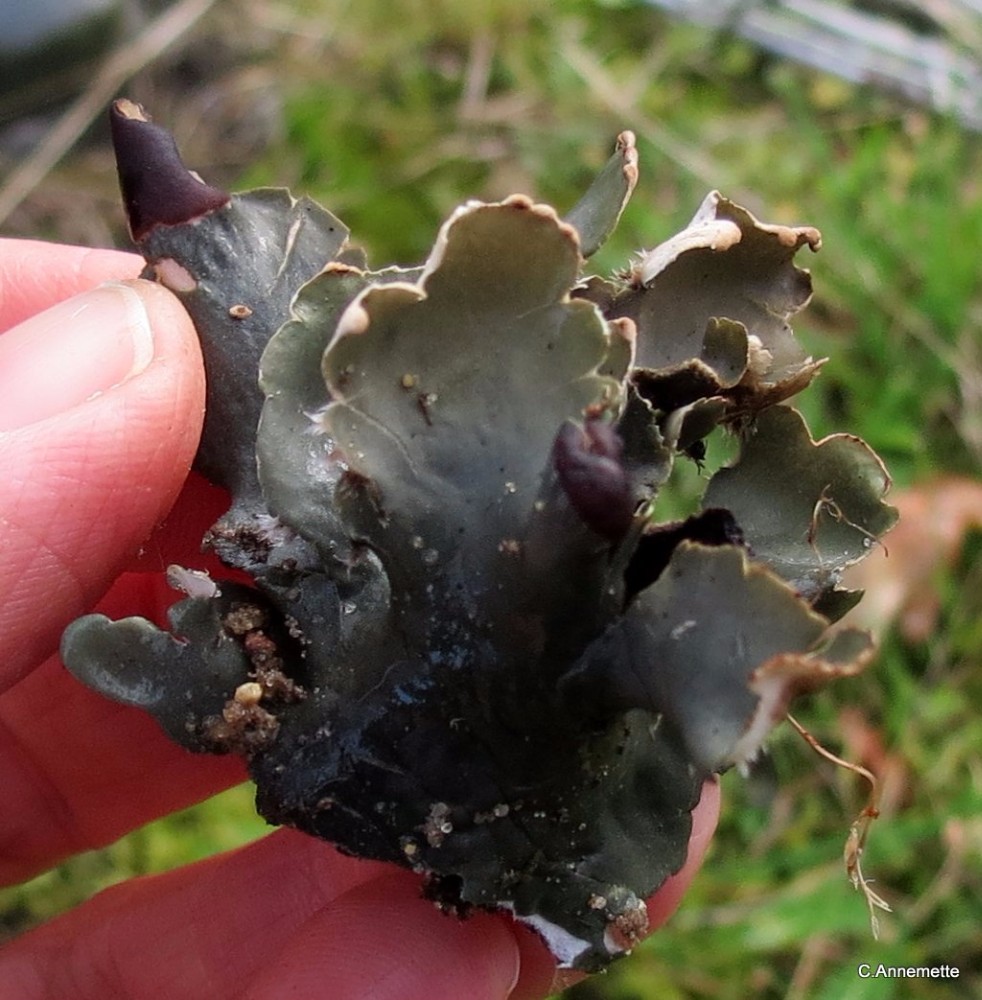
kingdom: Fungi
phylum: Ascomycota
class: Lecanoromycetes
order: Peltigerales
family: Peltigeraceae
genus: Peltigera
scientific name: Peltigera neckeri
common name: glinsende skjoldlav
